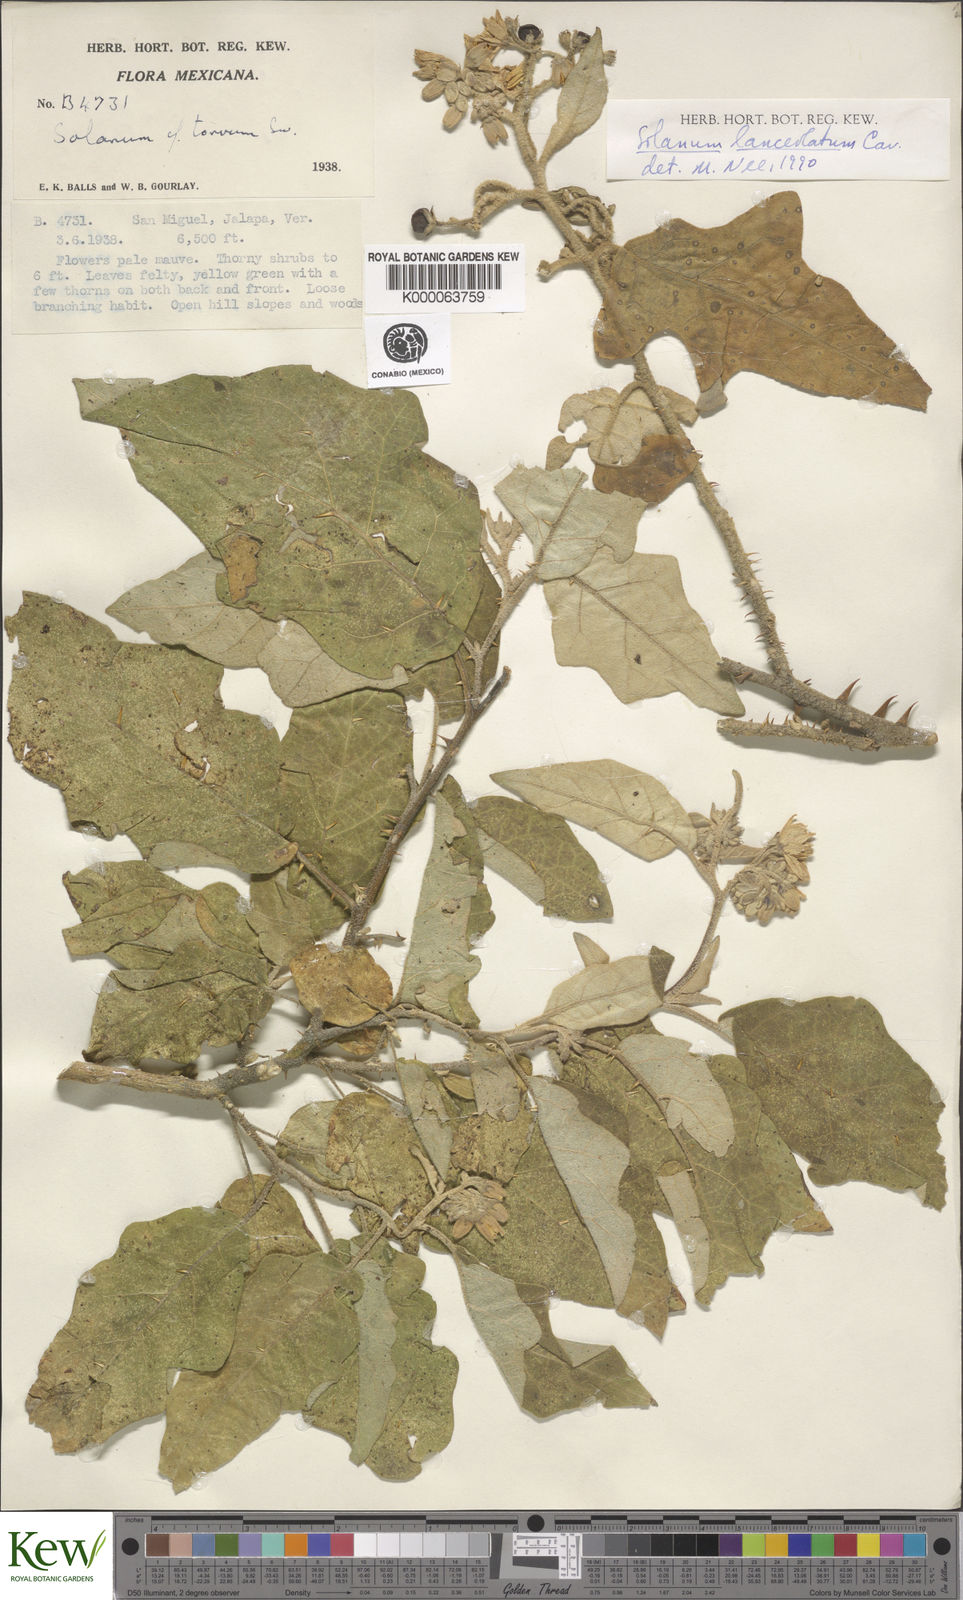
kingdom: Plantae
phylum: Tracheophyta
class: Magnoliopsida
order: Solanales
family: Solanaceae
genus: Solanum
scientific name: Solanum lanceolatum
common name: Orangeberry nightshade
